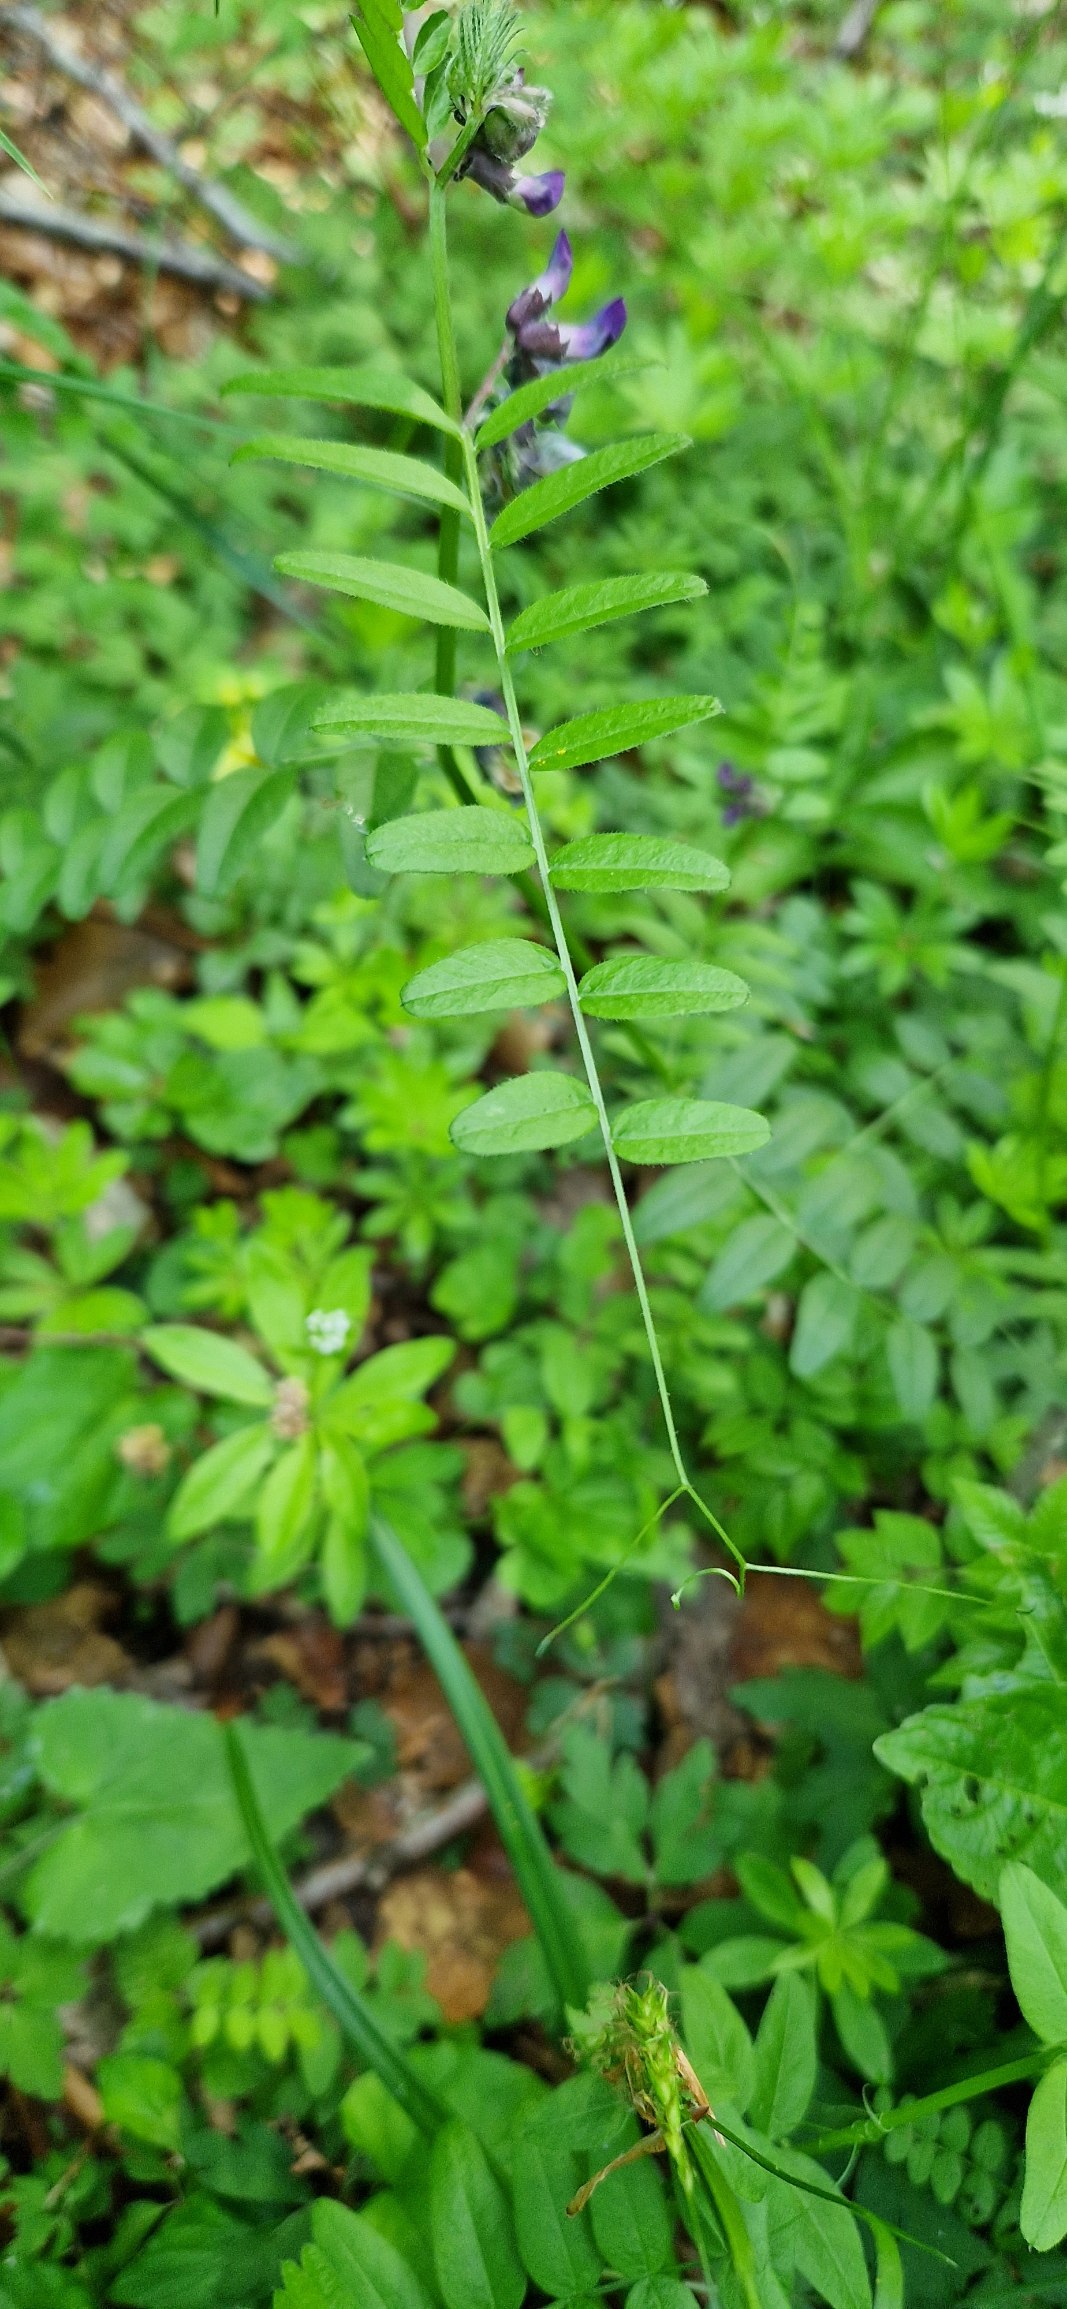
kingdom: Plantae
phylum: Tracheophyta
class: Magnoliopsida
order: Fabales
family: Fabaceae
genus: Vicia
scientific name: Vicia sepium
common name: Gærde-vikke
